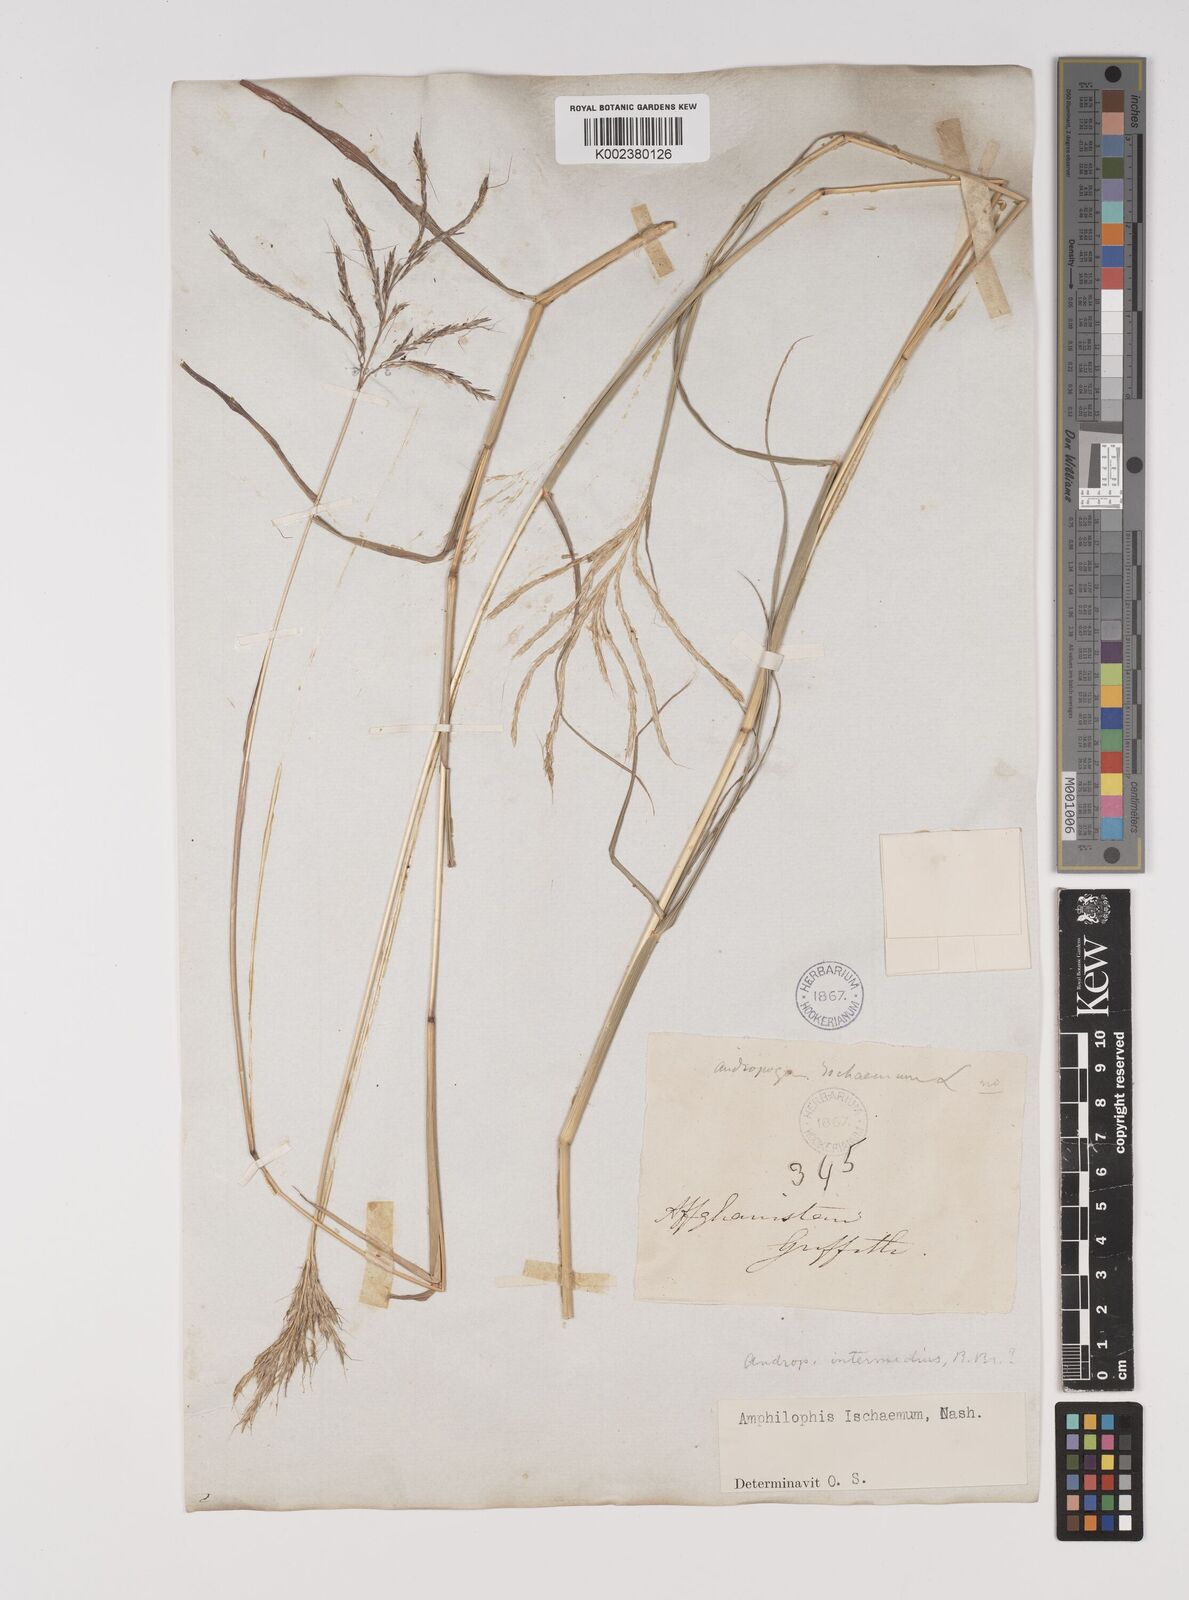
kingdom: Plantae
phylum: Tracheophyta
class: Liliopsida
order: Poales
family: Poaceae
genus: Bothriochloa
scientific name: Bothriochloa ischaemum
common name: Yellow bluestem
